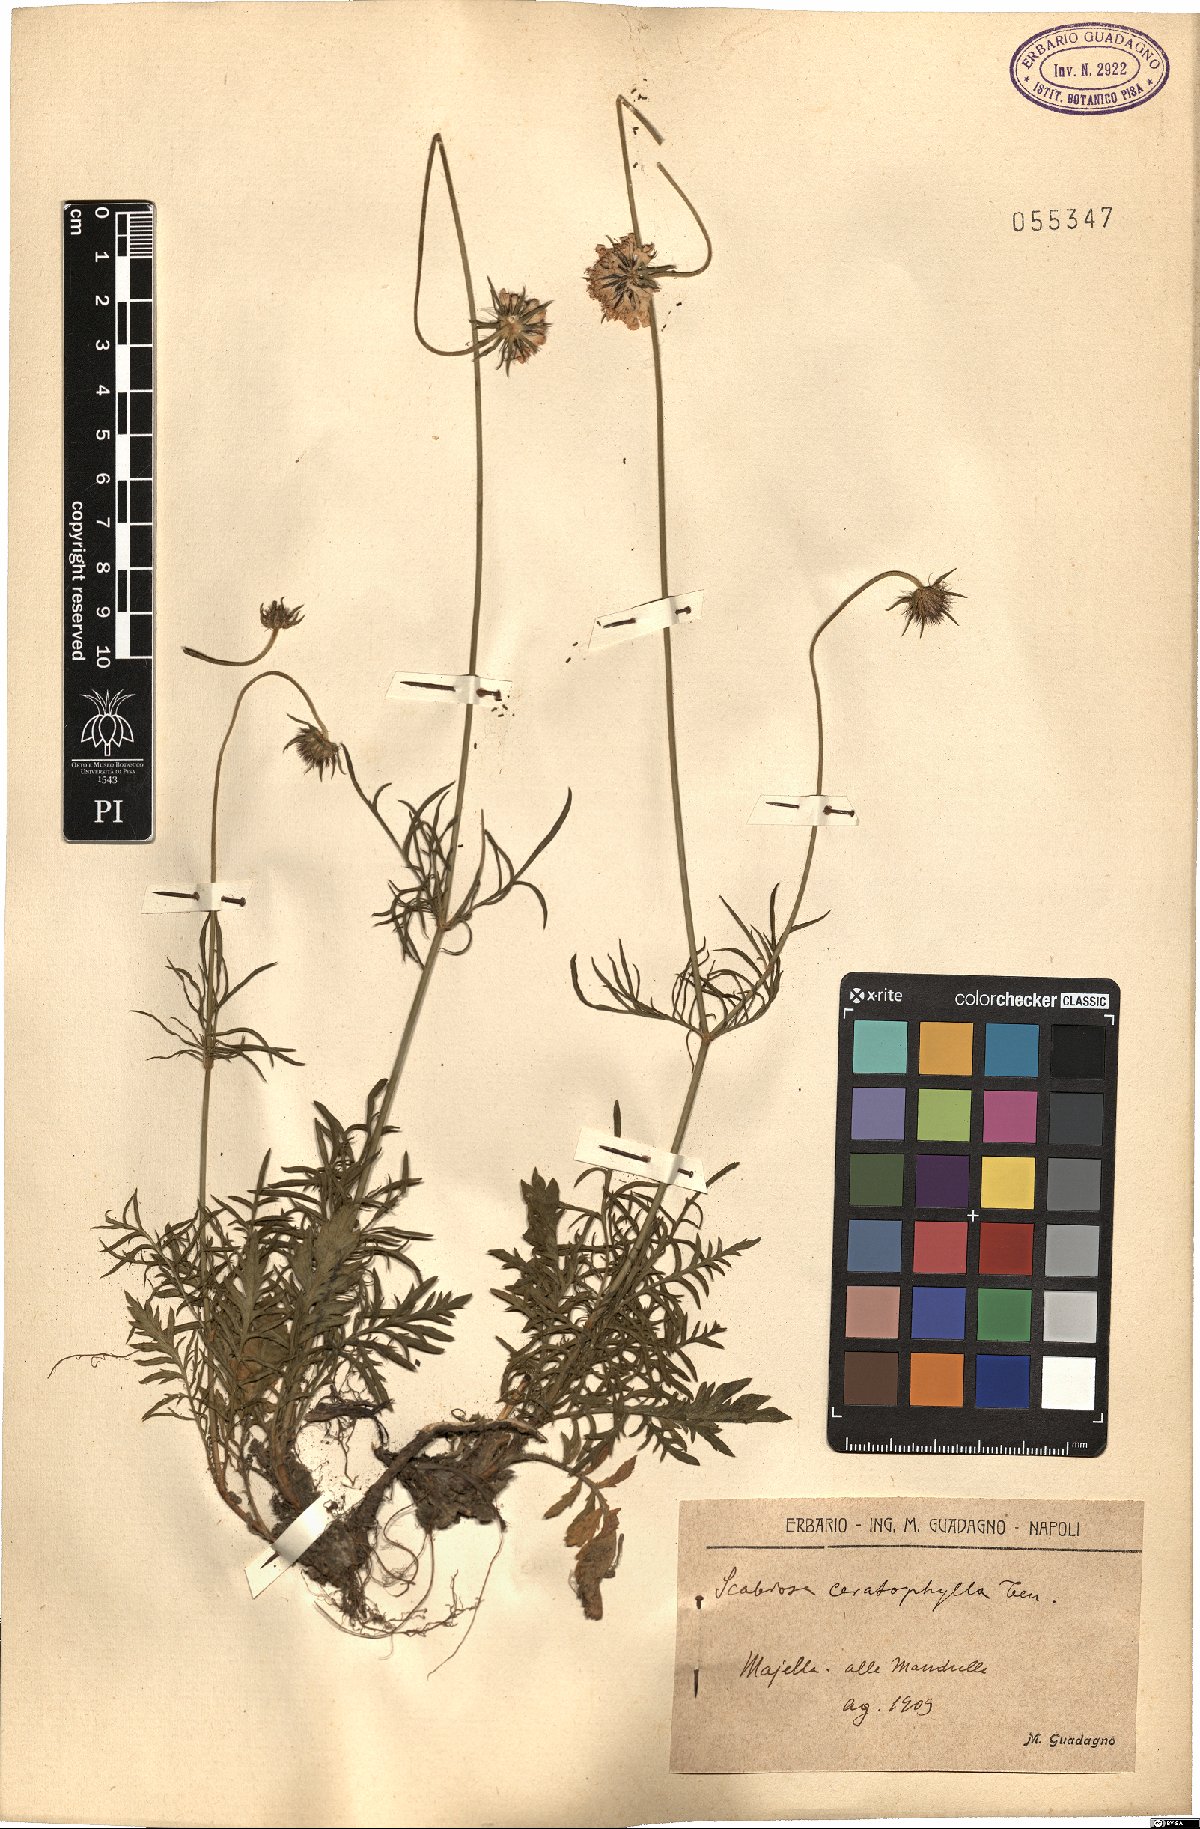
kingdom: Plantae
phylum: Tracheophyta
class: Magnoliopsida
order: Dipsacales
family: Caprifoliaceae
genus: Scabiosa
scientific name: Scabiosa triandra
